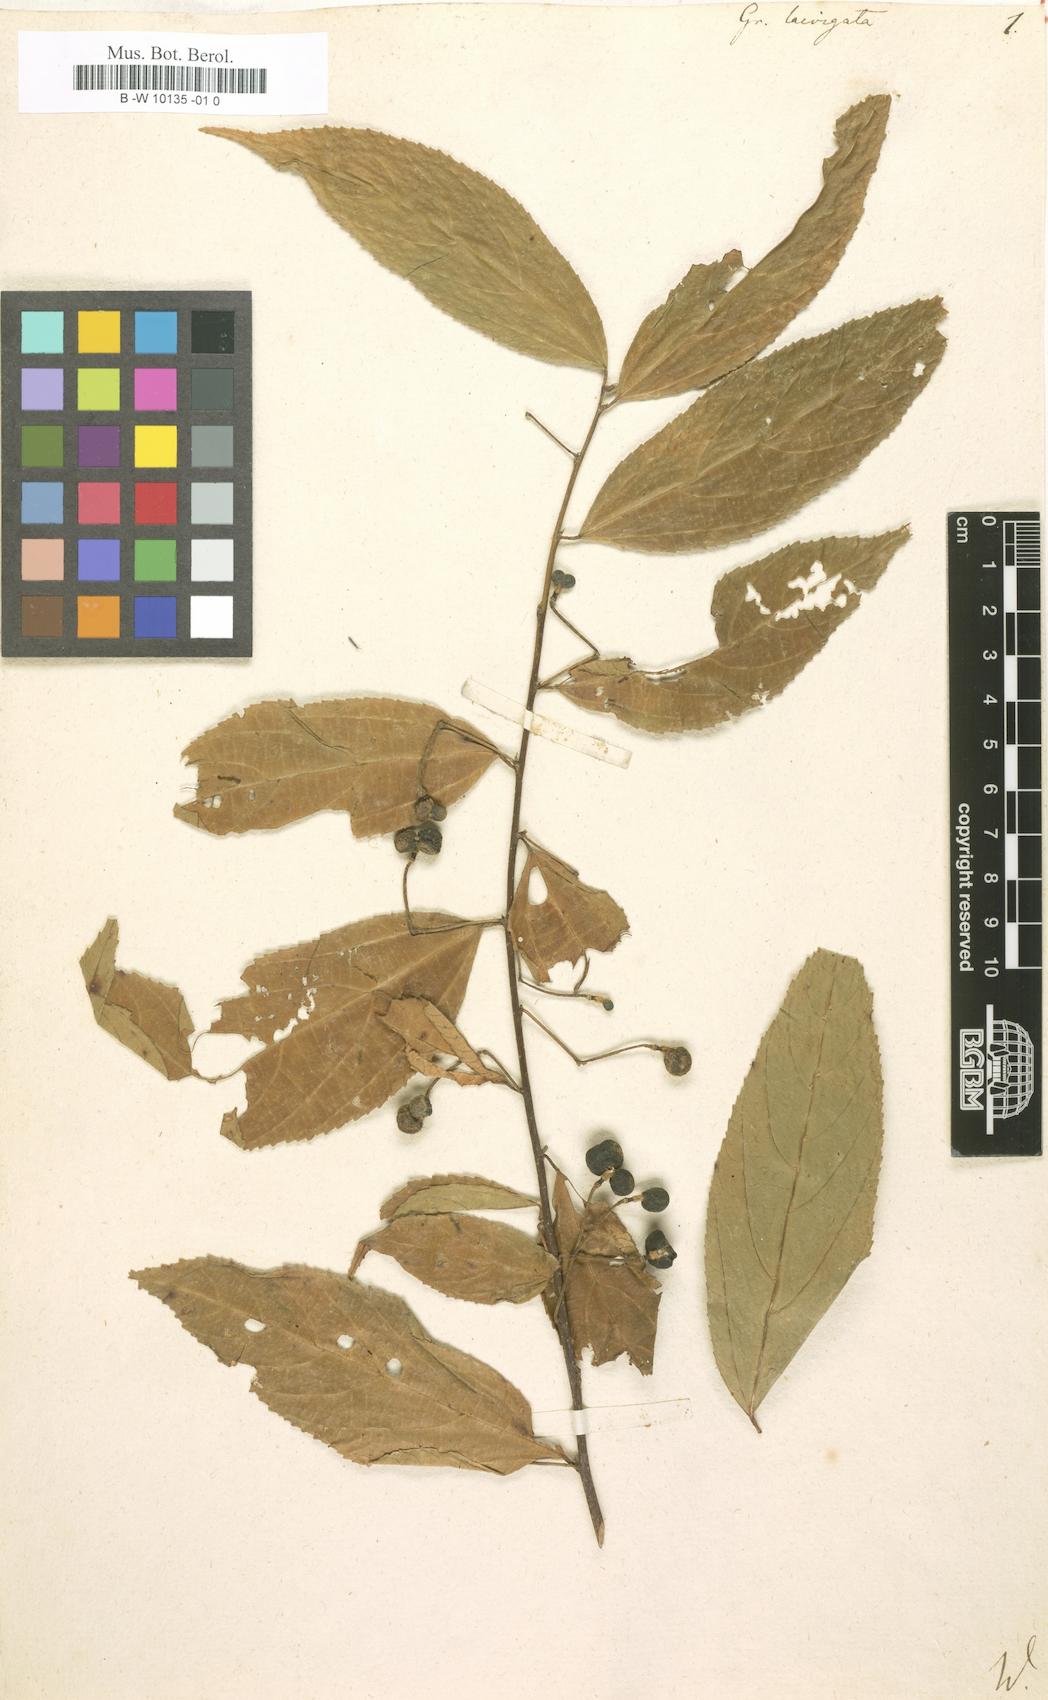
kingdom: Plantae
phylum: Tracheophyta
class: Magnoliopsida
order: Malvales
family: Malvaceae
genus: Grewia
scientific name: Grewia laevigata
